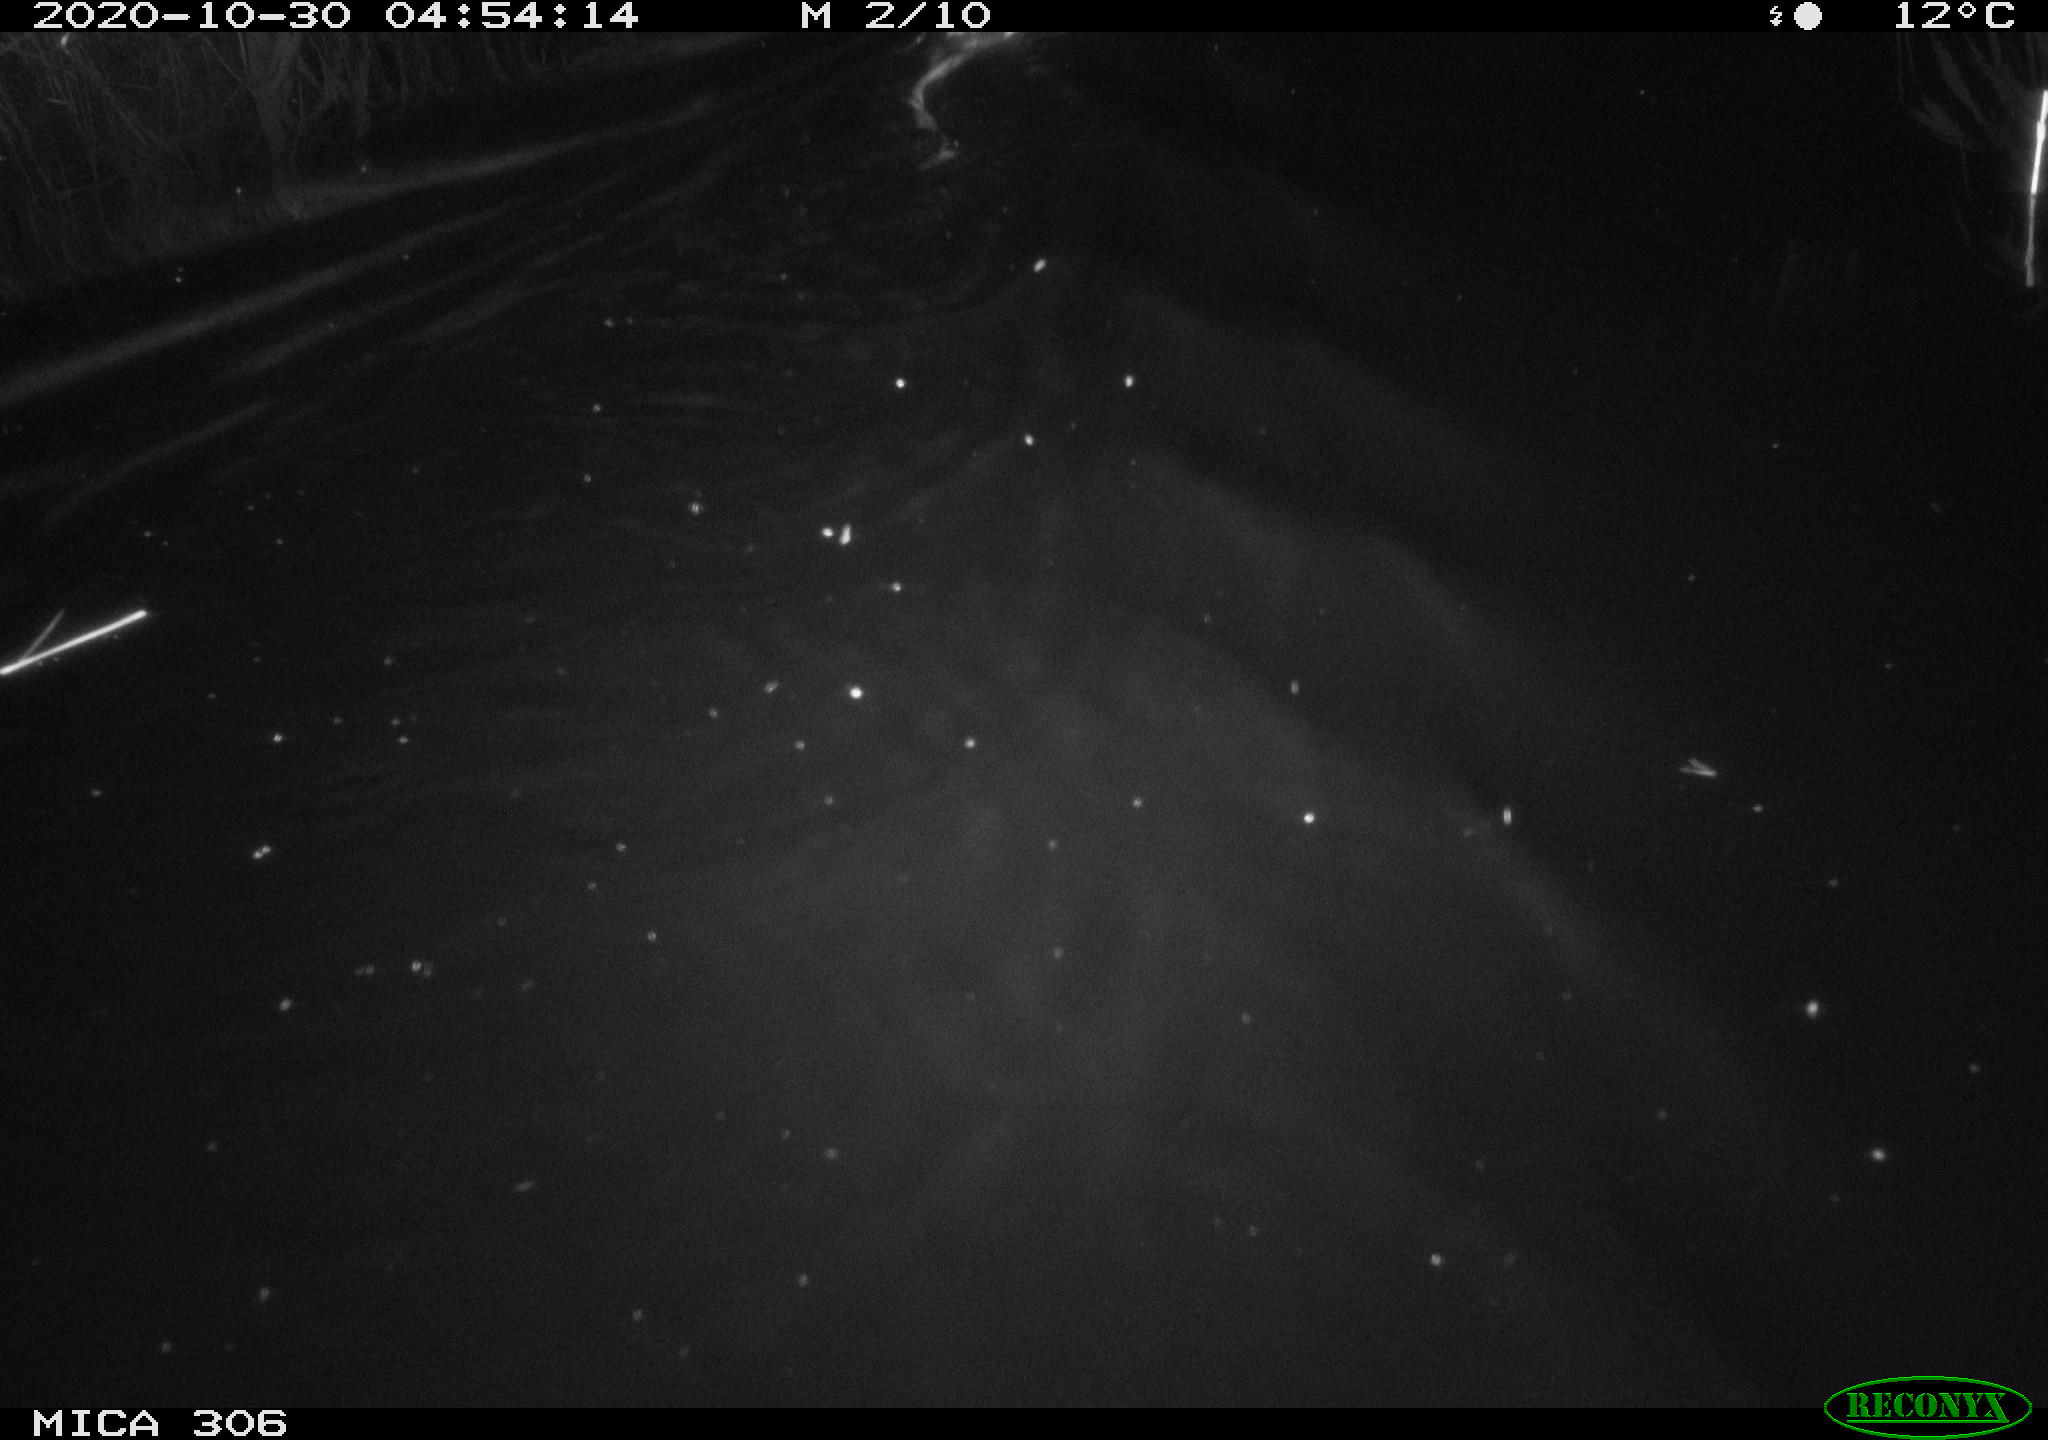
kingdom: Animalia
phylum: Chordata
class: Mammalia
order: Rodentia
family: Cricetidae
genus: Ondatra
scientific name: Ondatra zibethicus
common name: Muskrat
